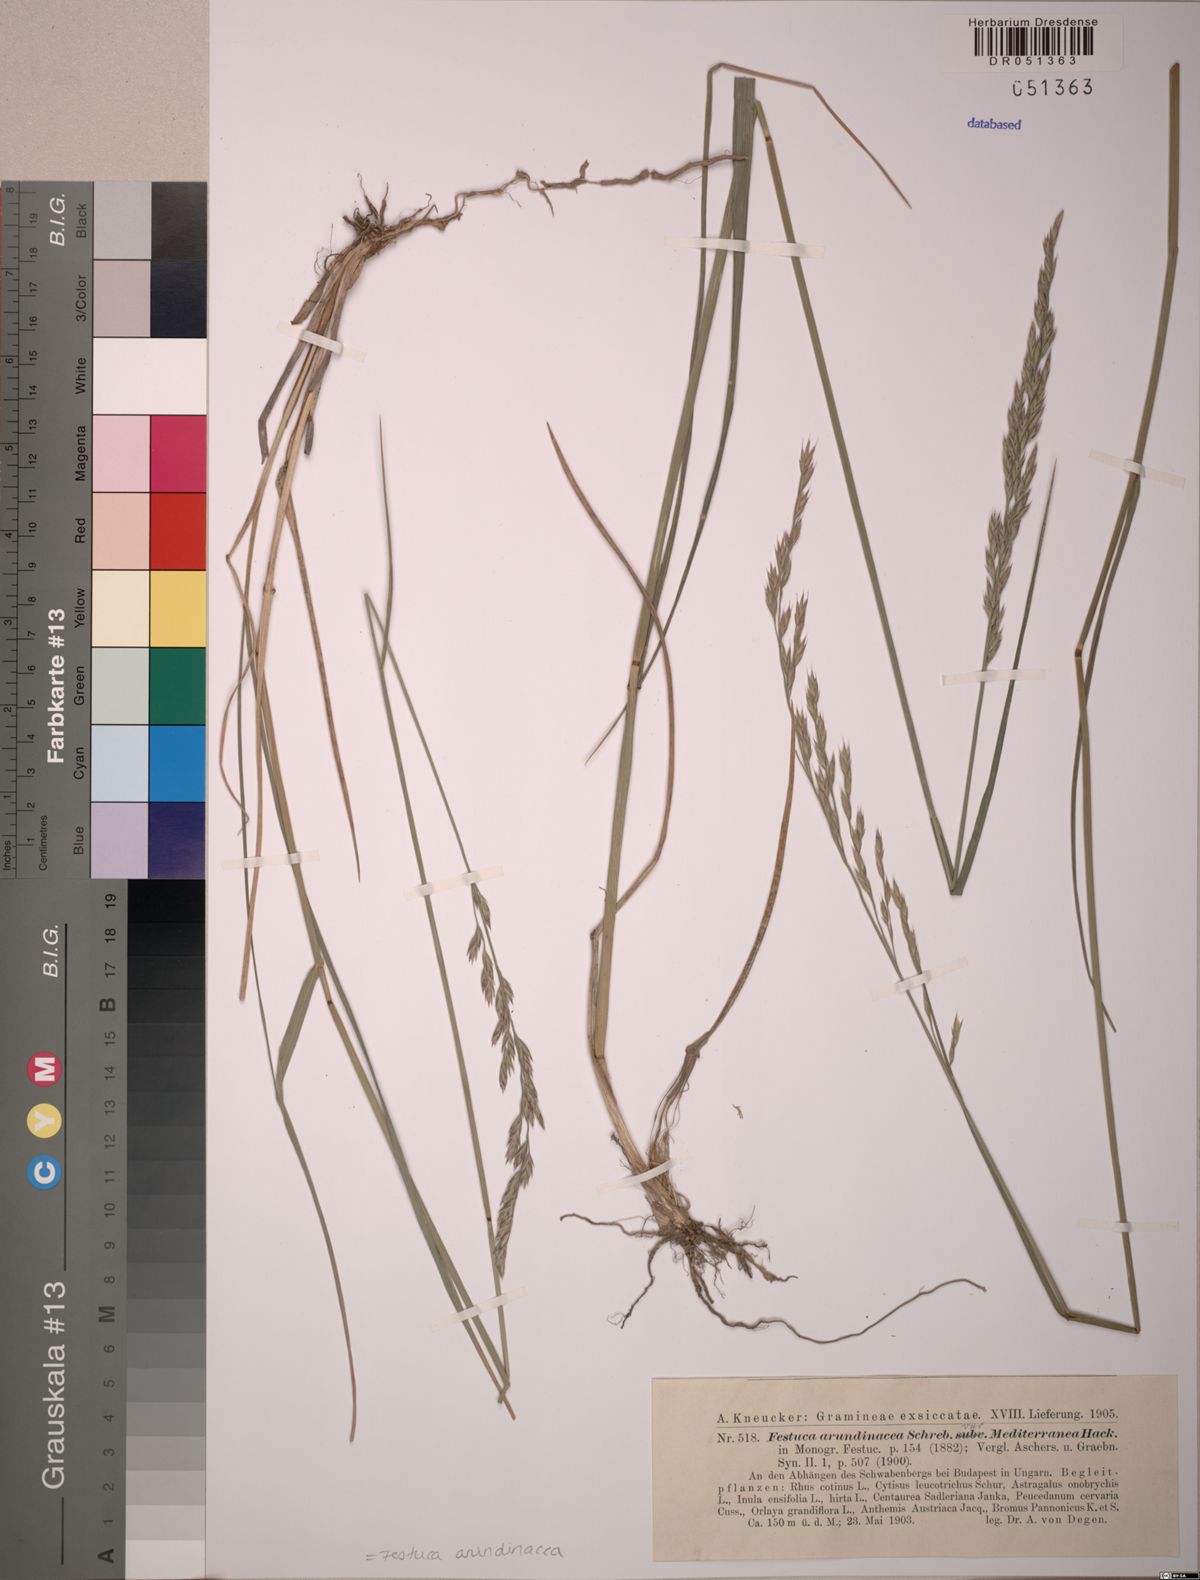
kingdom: Plantae
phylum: Tracheophyta
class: Liliopsida
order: Poales
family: Poaceae
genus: Lolium
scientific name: Lolium arundinaceum
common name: Reed fescue
